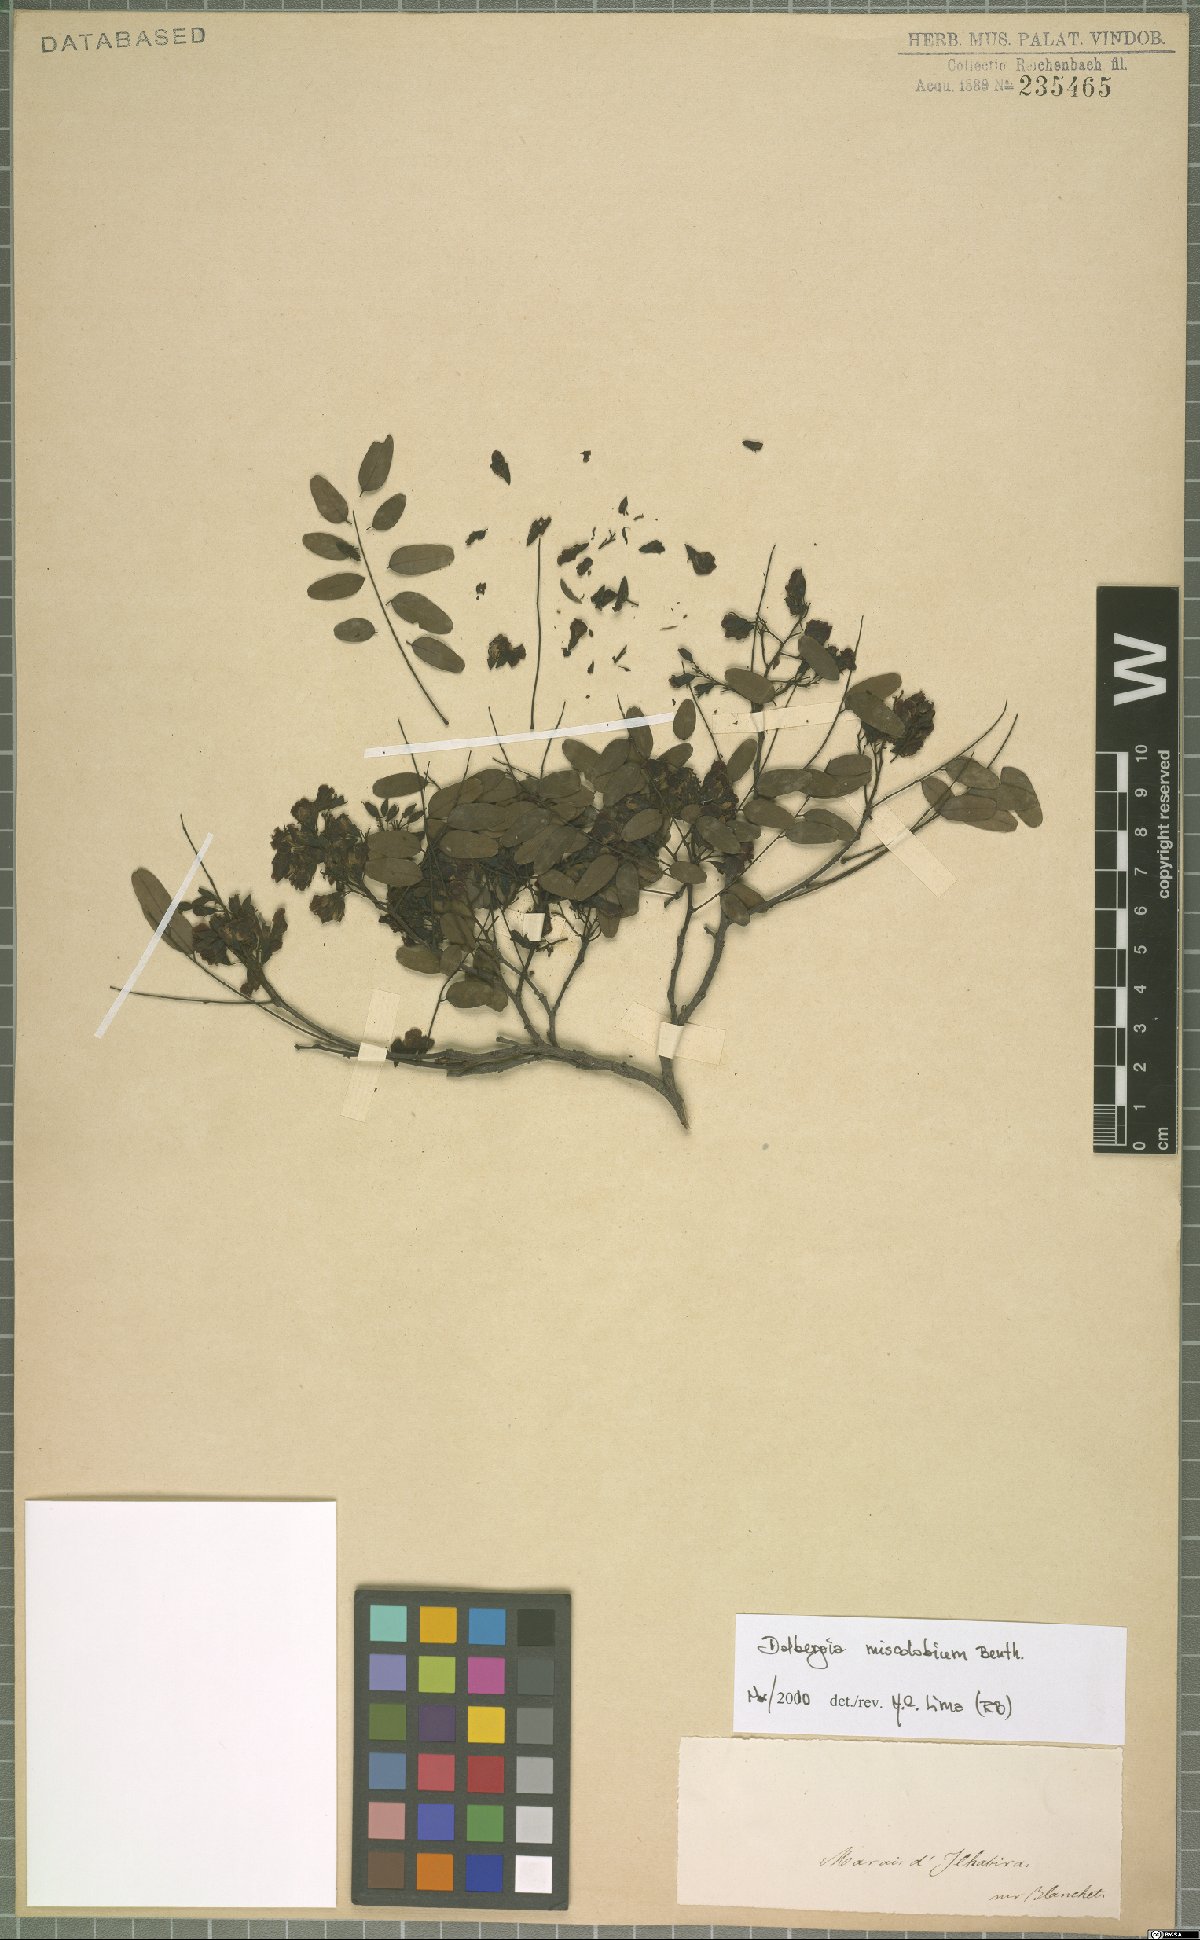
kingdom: Plantae
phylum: Tracheophyta
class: Magnoliopsida
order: Fabales
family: Fabaceae
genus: Dalbergia
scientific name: Dalbergia miscolobium
